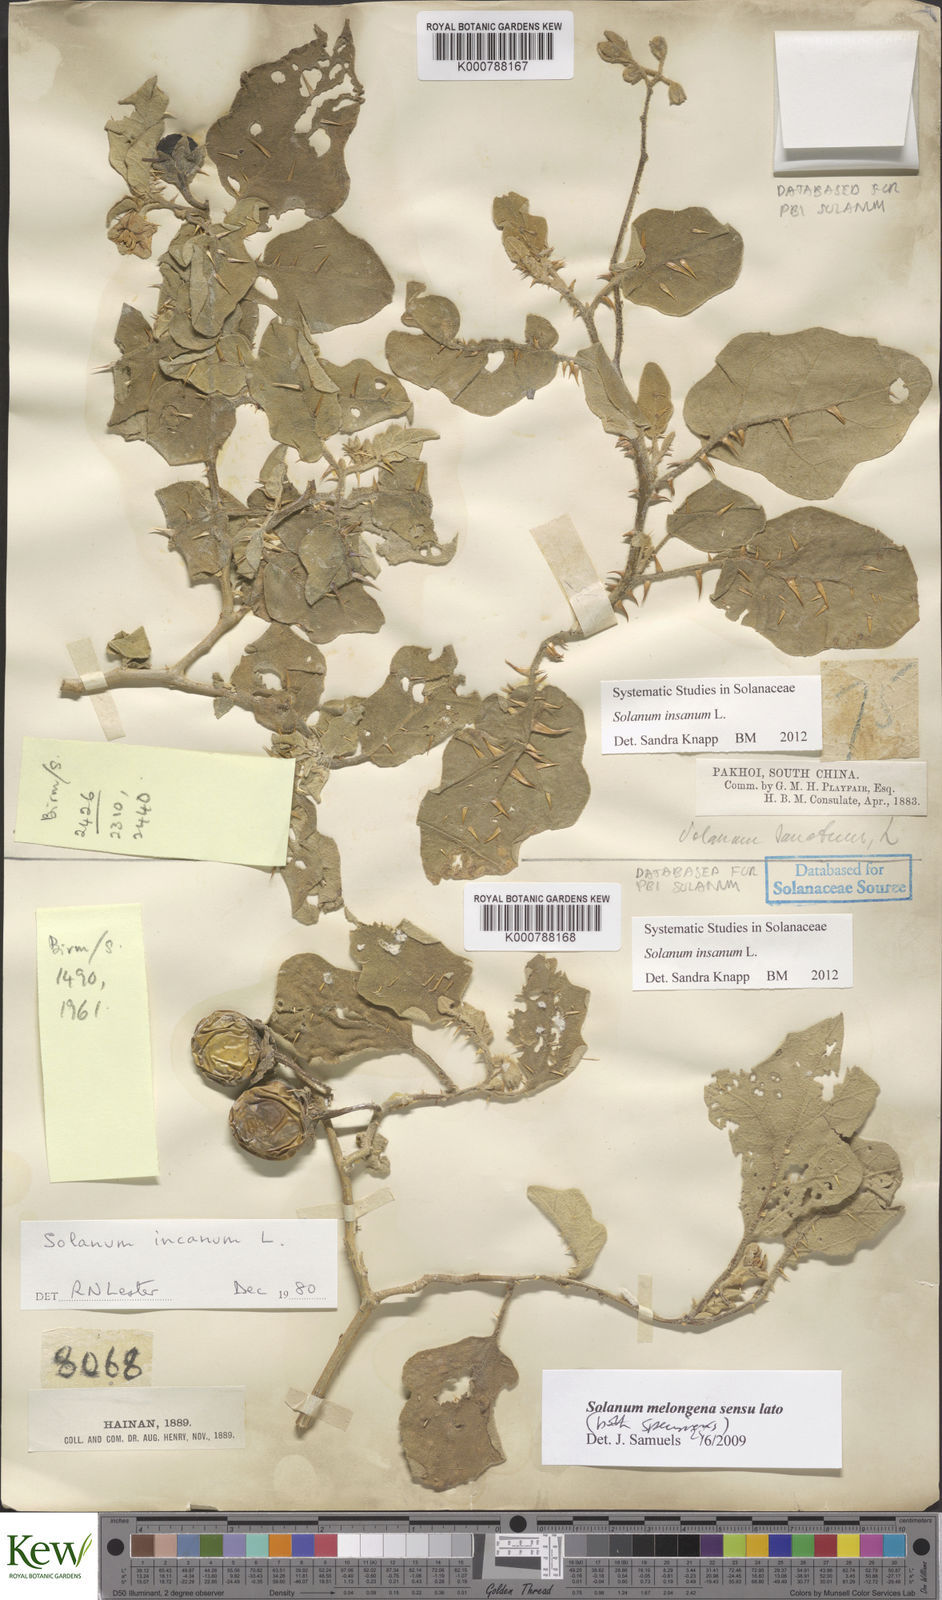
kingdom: Plantae
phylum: Tracheophyta
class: Magnoliopsida
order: Solanales
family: Solanaceae
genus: Solanum
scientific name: Solanum insanum
